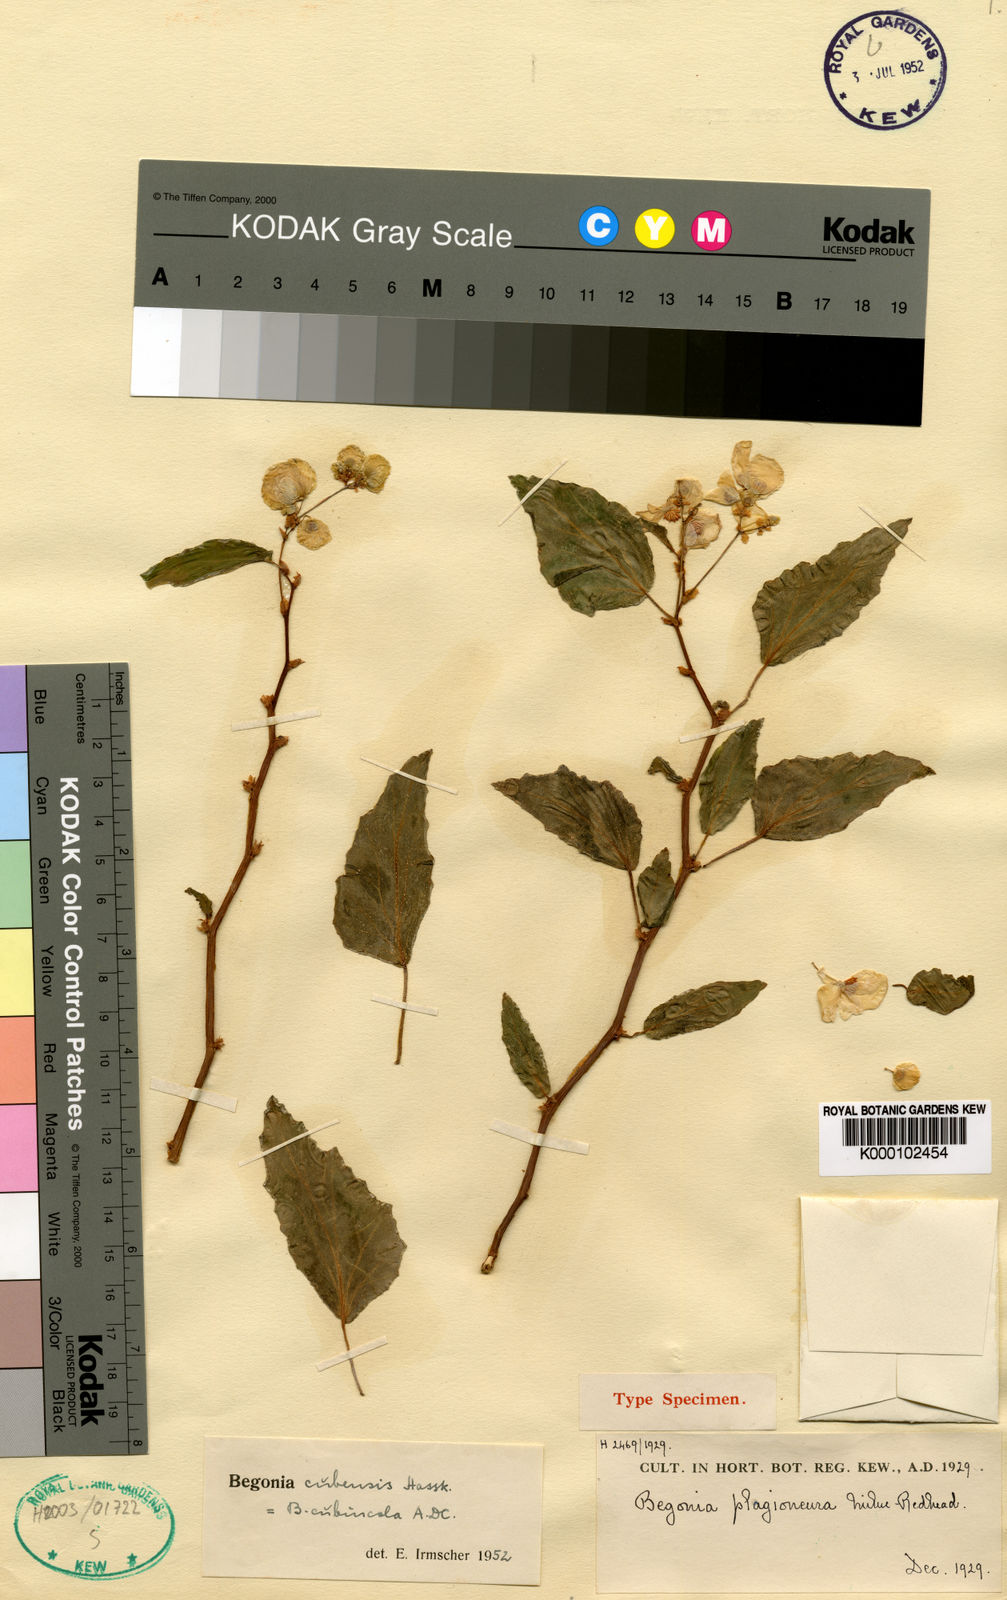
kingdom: Plantae
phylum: Tracheophyta
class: Magnoliopsida
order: Cucurbitales
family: Begoniaceae
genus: Begonia
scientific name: Begonia cubensis
